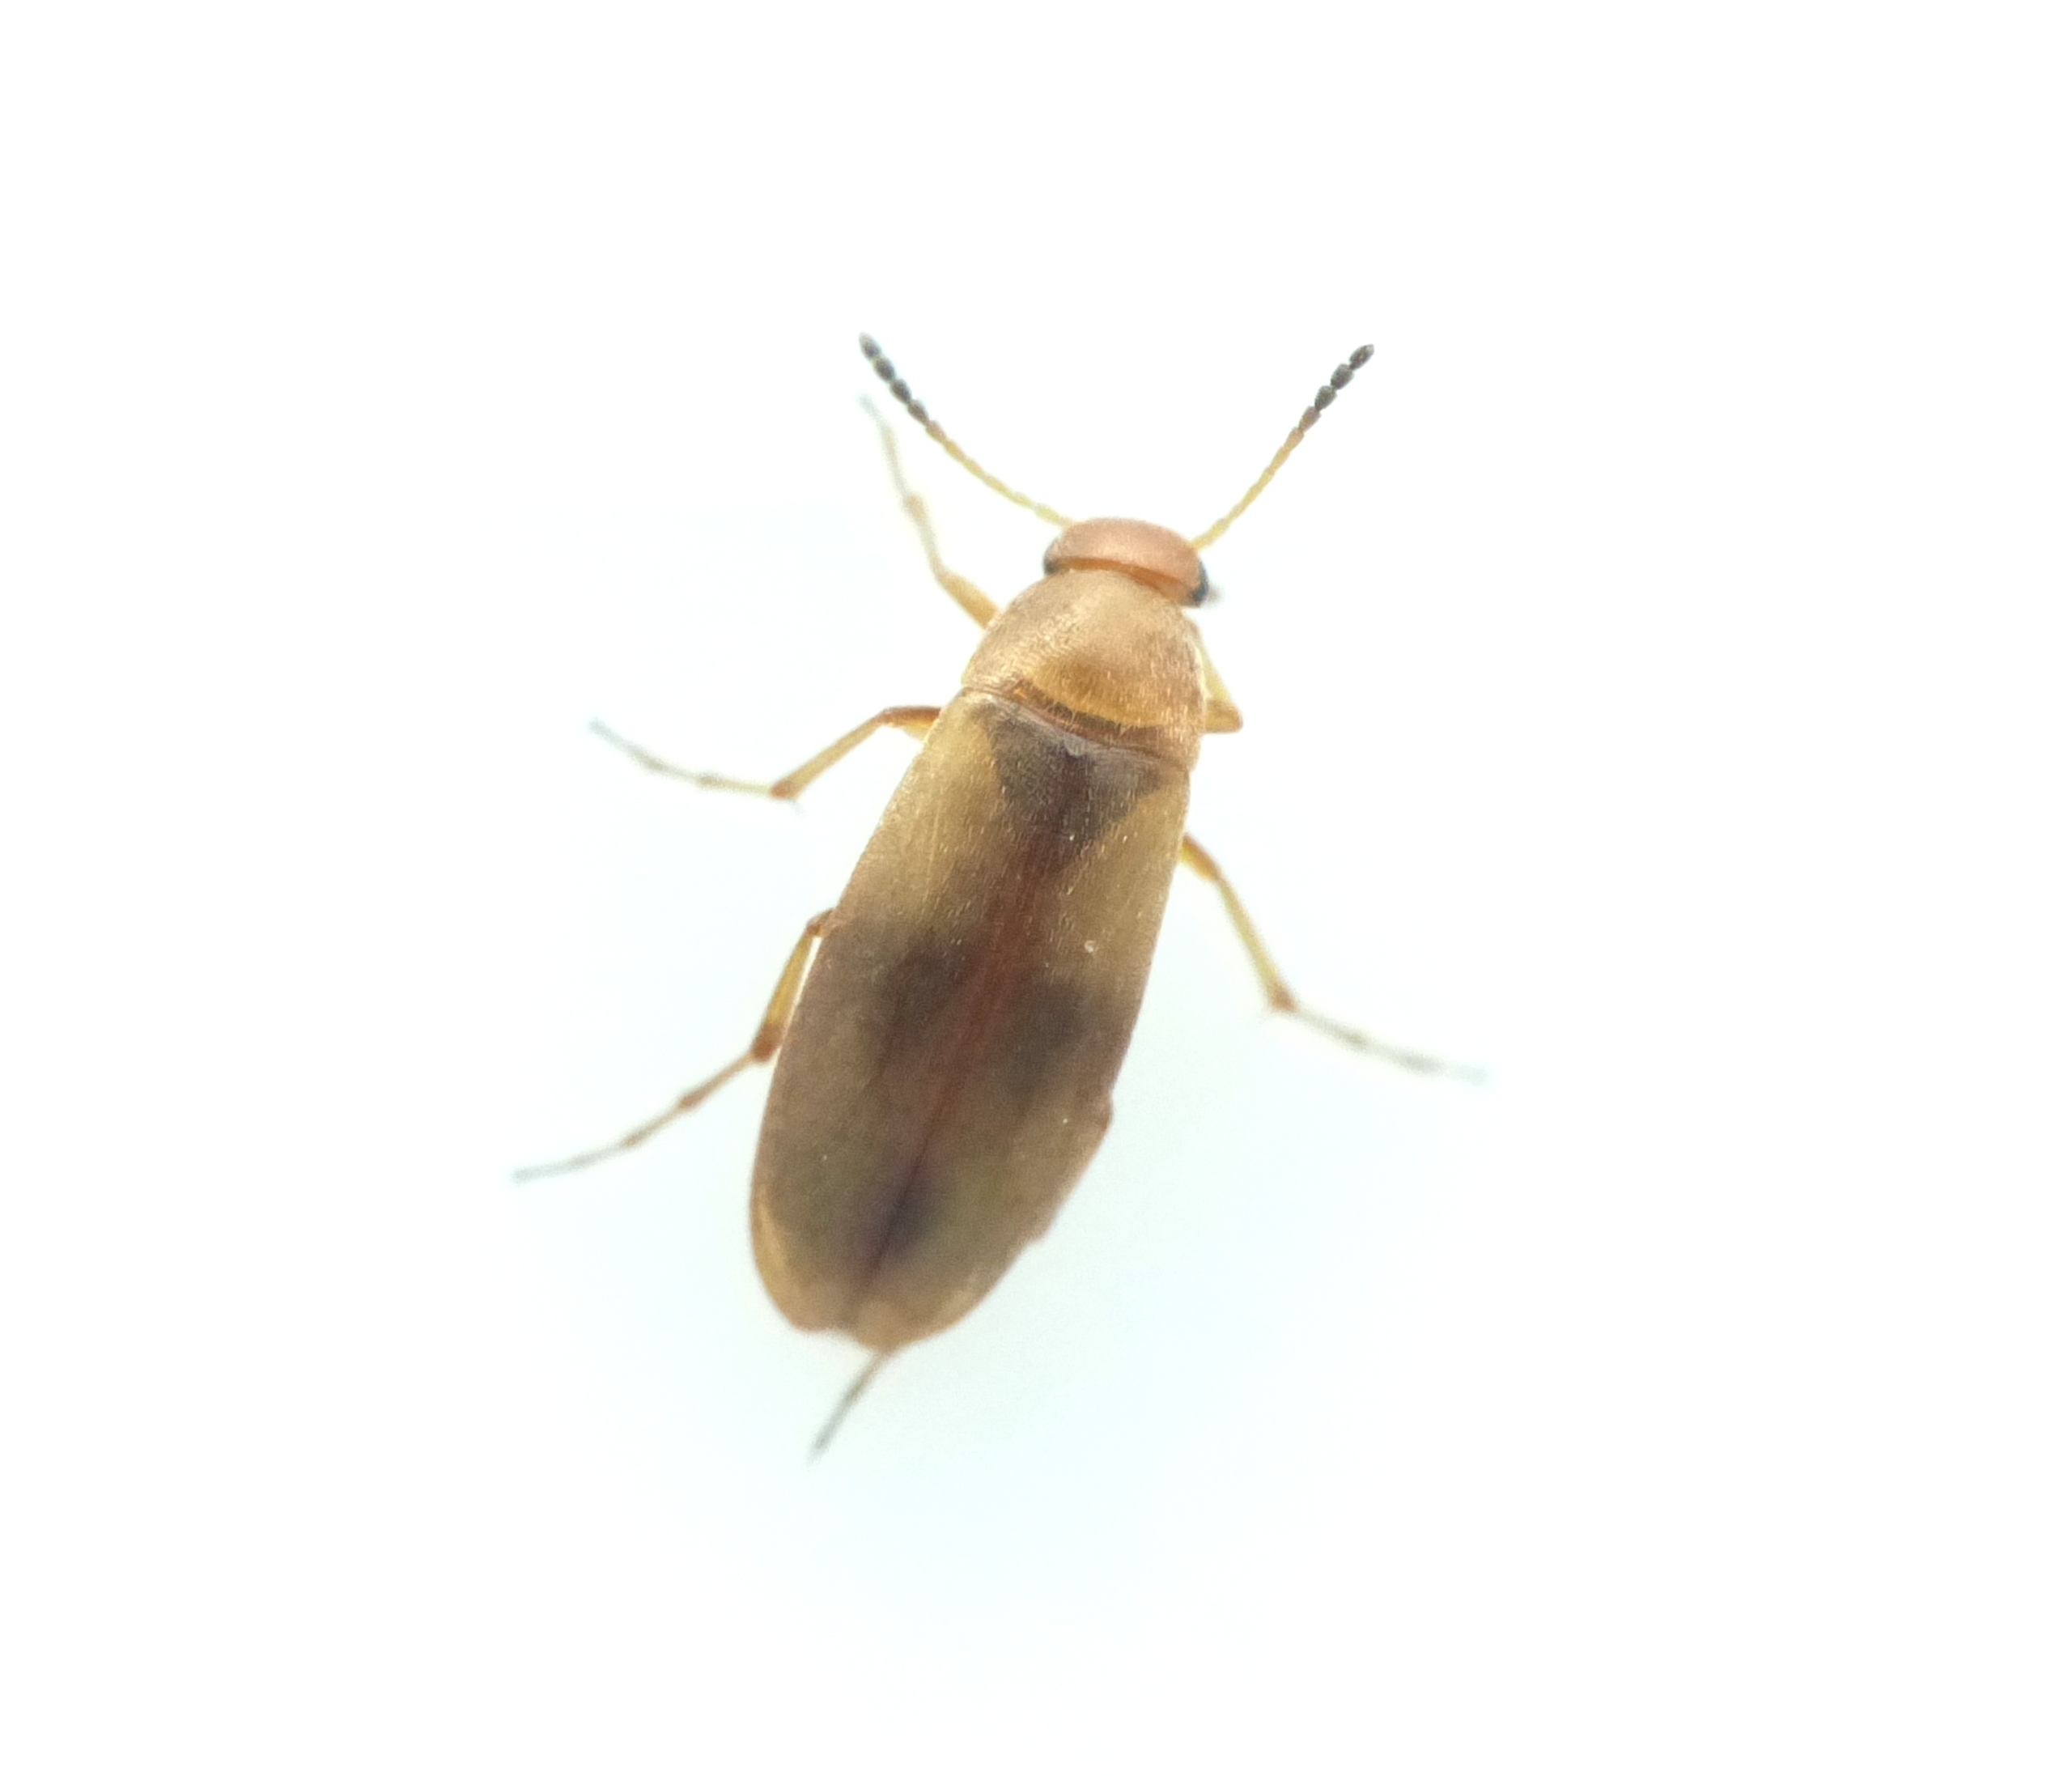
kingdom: Animalia
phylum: Arthropoda
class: Insecta
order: Coleoptera
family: Scraptiidae
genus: Anaspis
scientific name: Anaspis maculata
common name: Sortplettet spidshale
